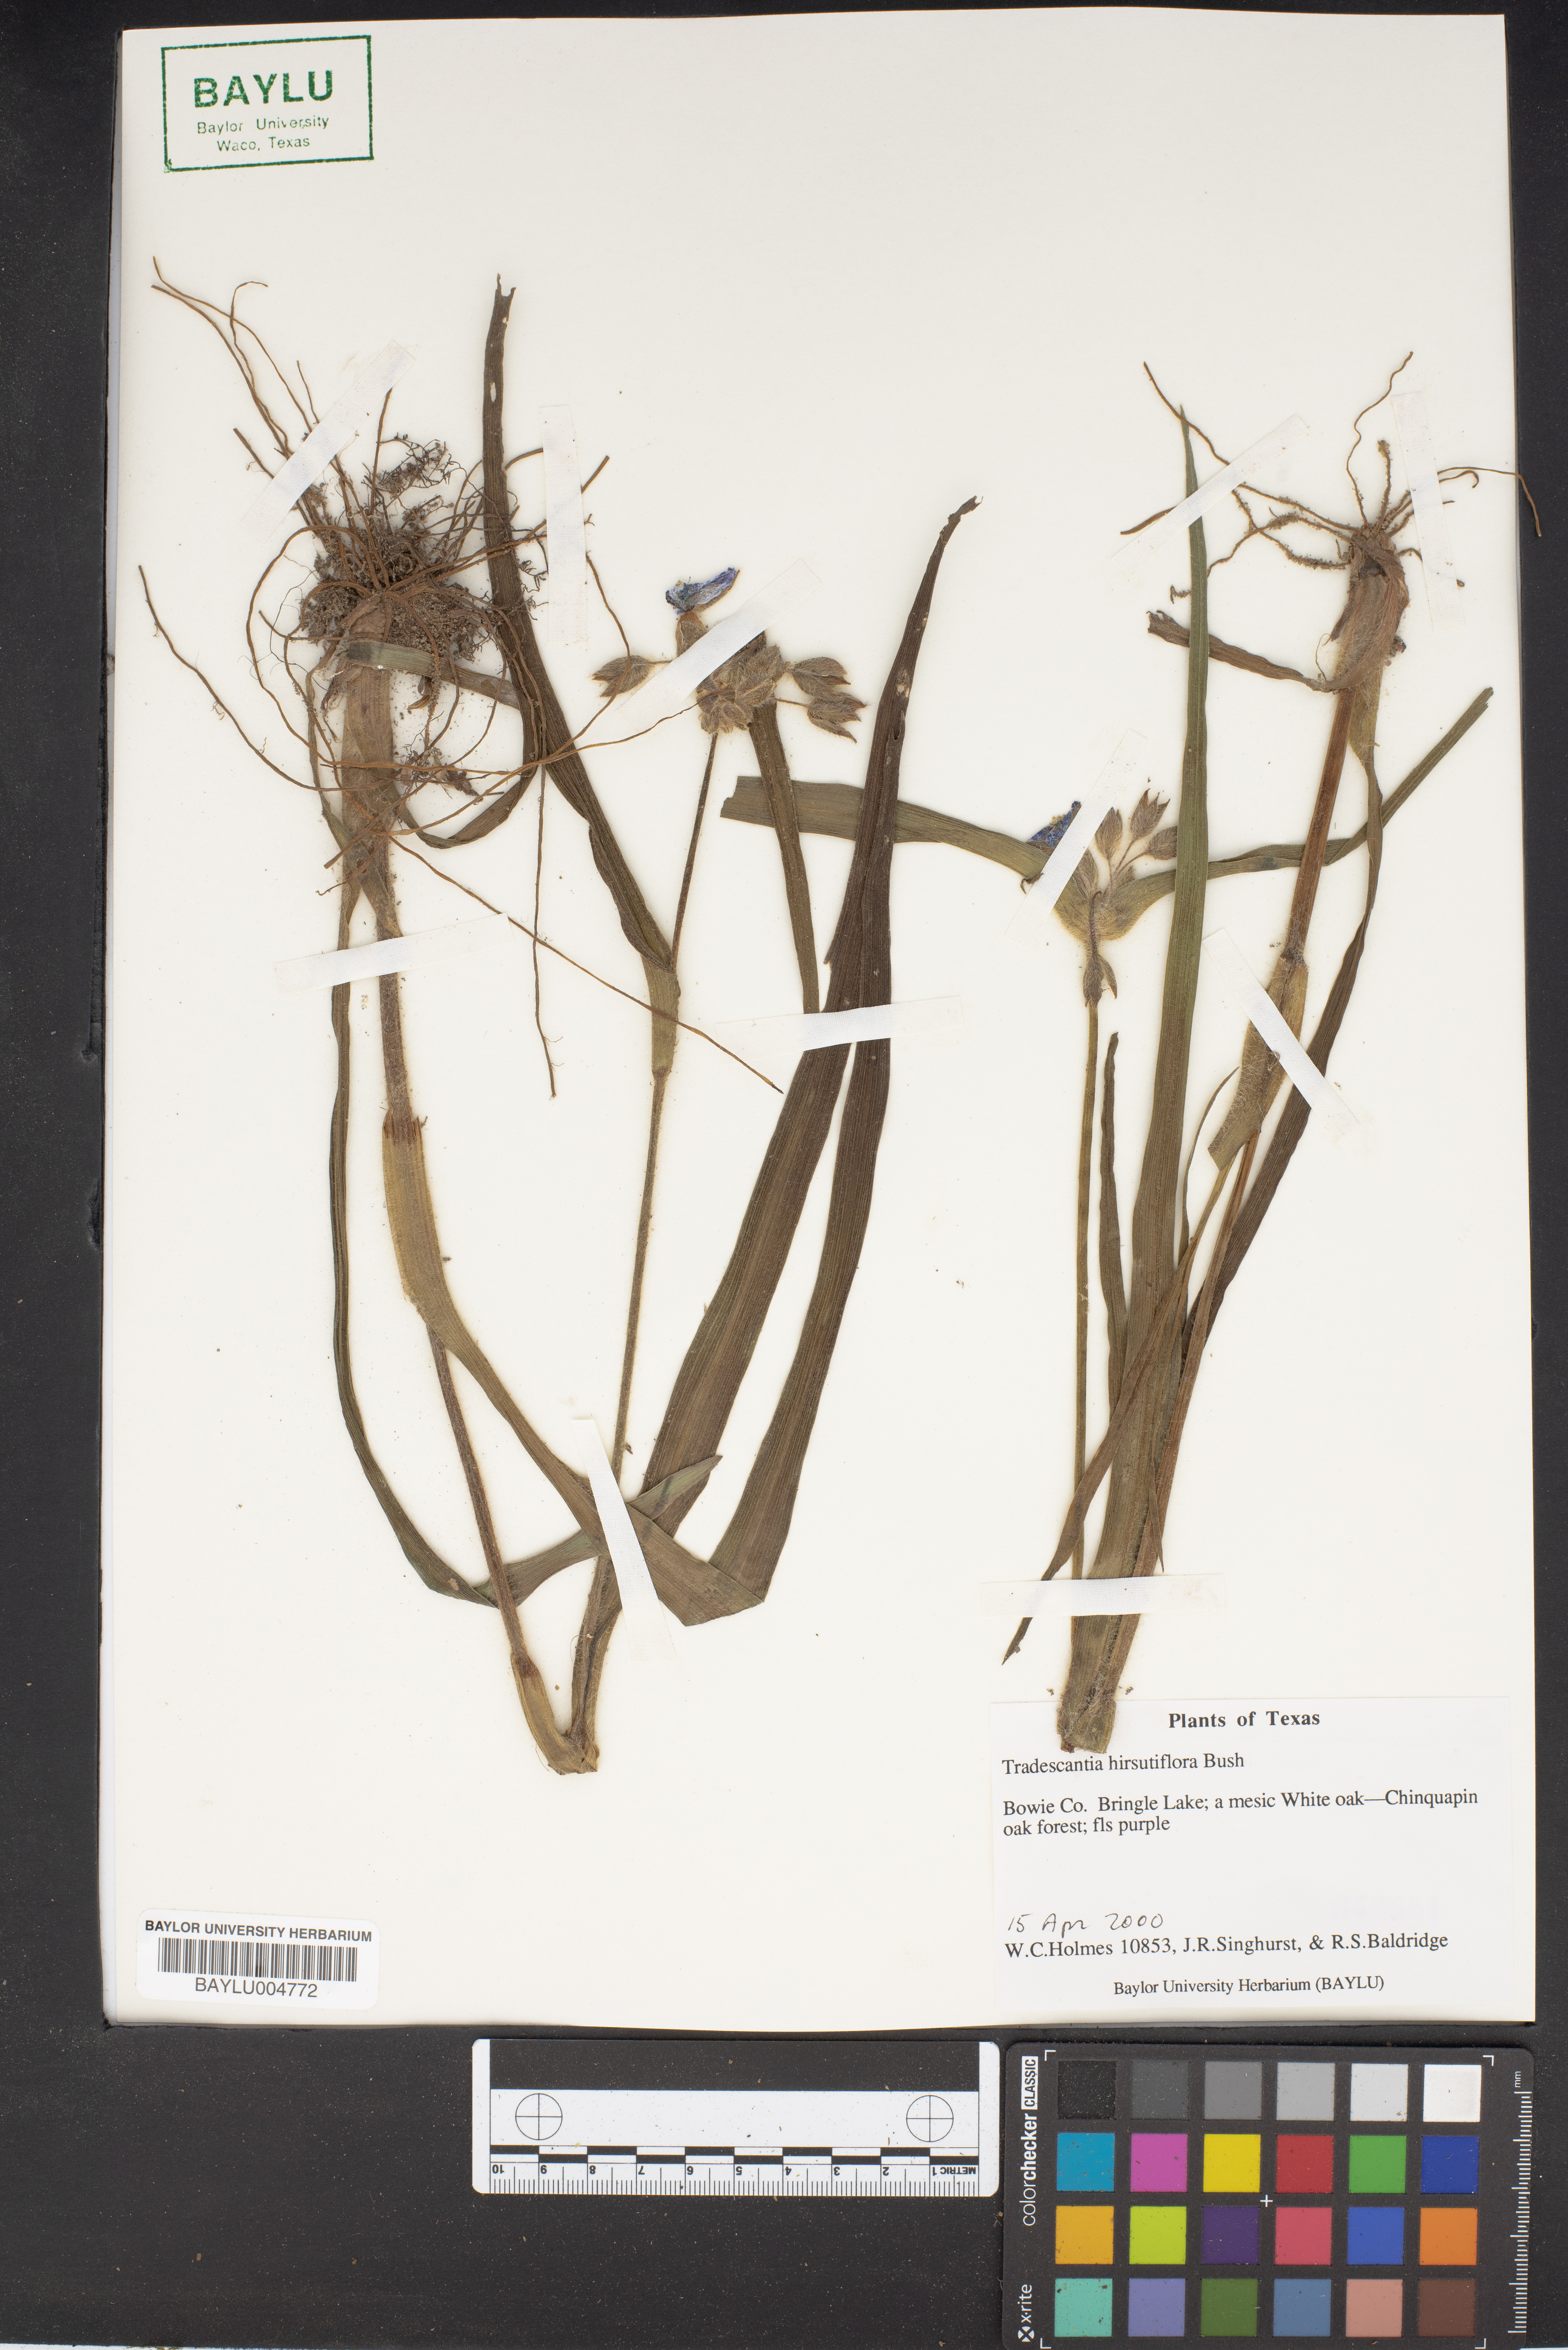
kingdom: Plantae
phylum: Tracheophyta
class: Liliopsida
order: Commelinales
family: Commelinaceae
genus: Tradescantia
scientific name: Tradescantia hirsutiflora
